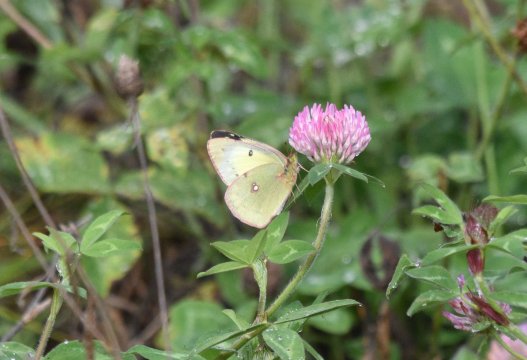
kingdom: Animalia
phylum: Arthropoda
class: Insecta
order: Lepidoptera
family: Pieridae
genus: Colias
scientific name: Colias philodice
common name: Clouded Sulphur
